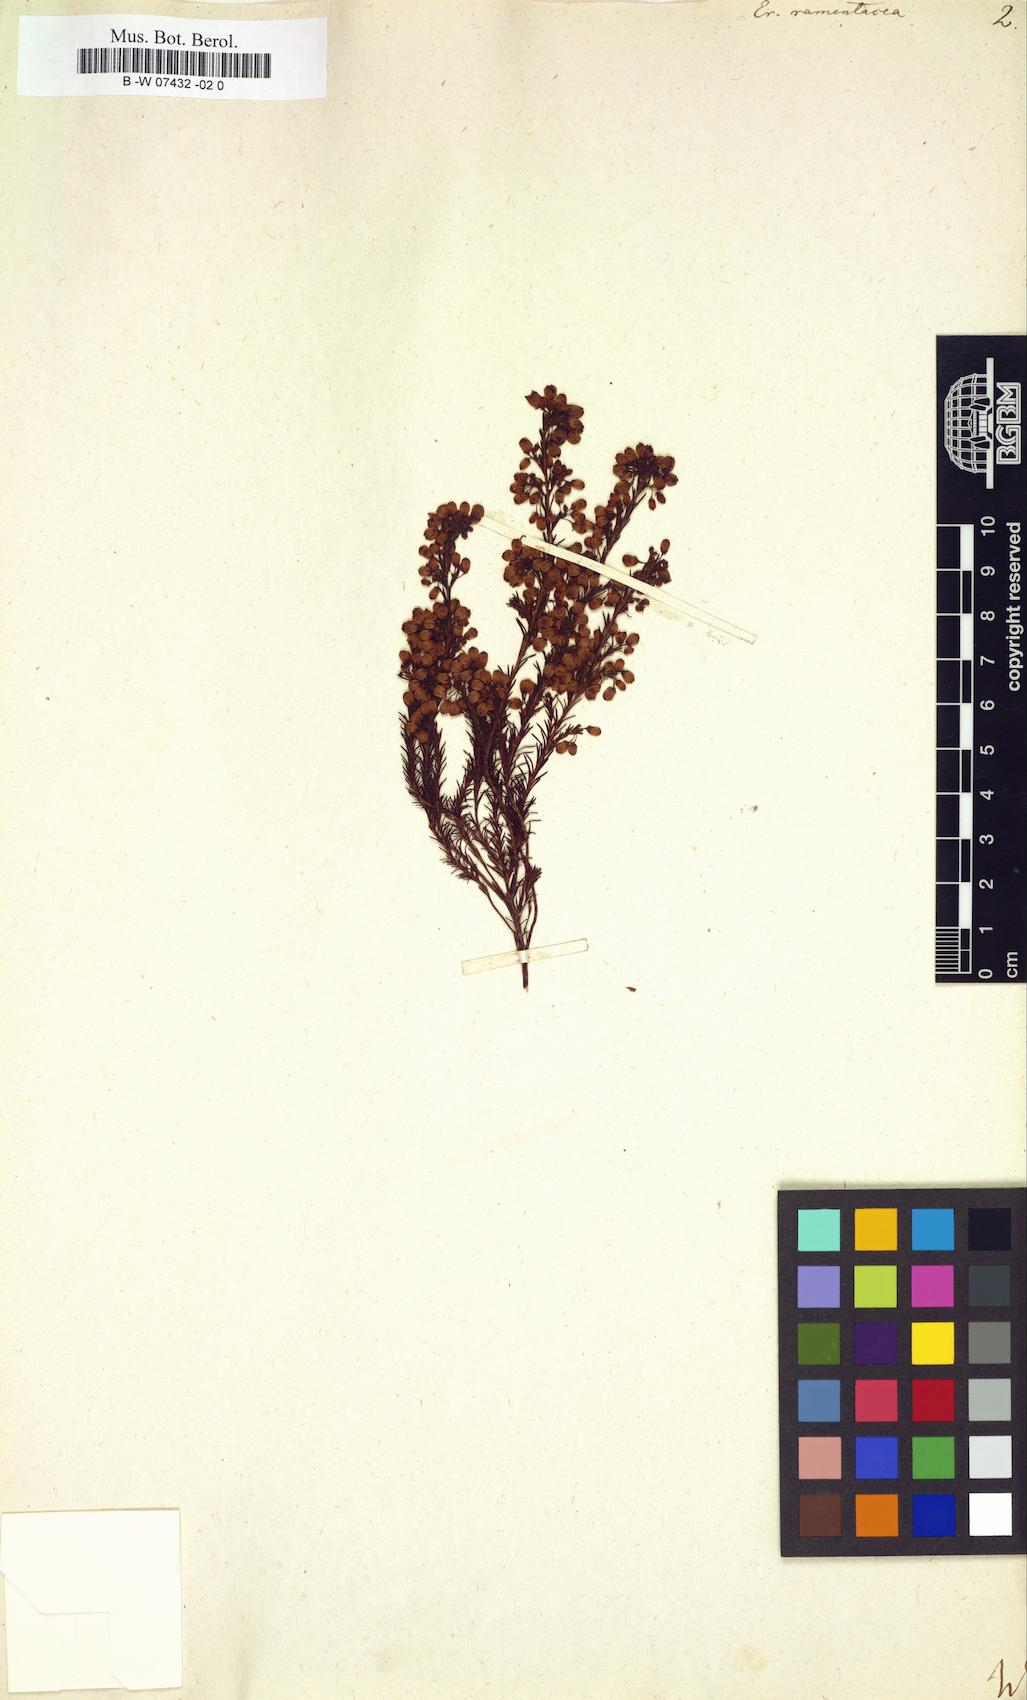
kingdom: Plantae
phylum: Tracheophyta
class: Magnoliopsida
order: Ericales
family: Ericaceae
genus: Erica
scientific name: Erica multumbellifera
